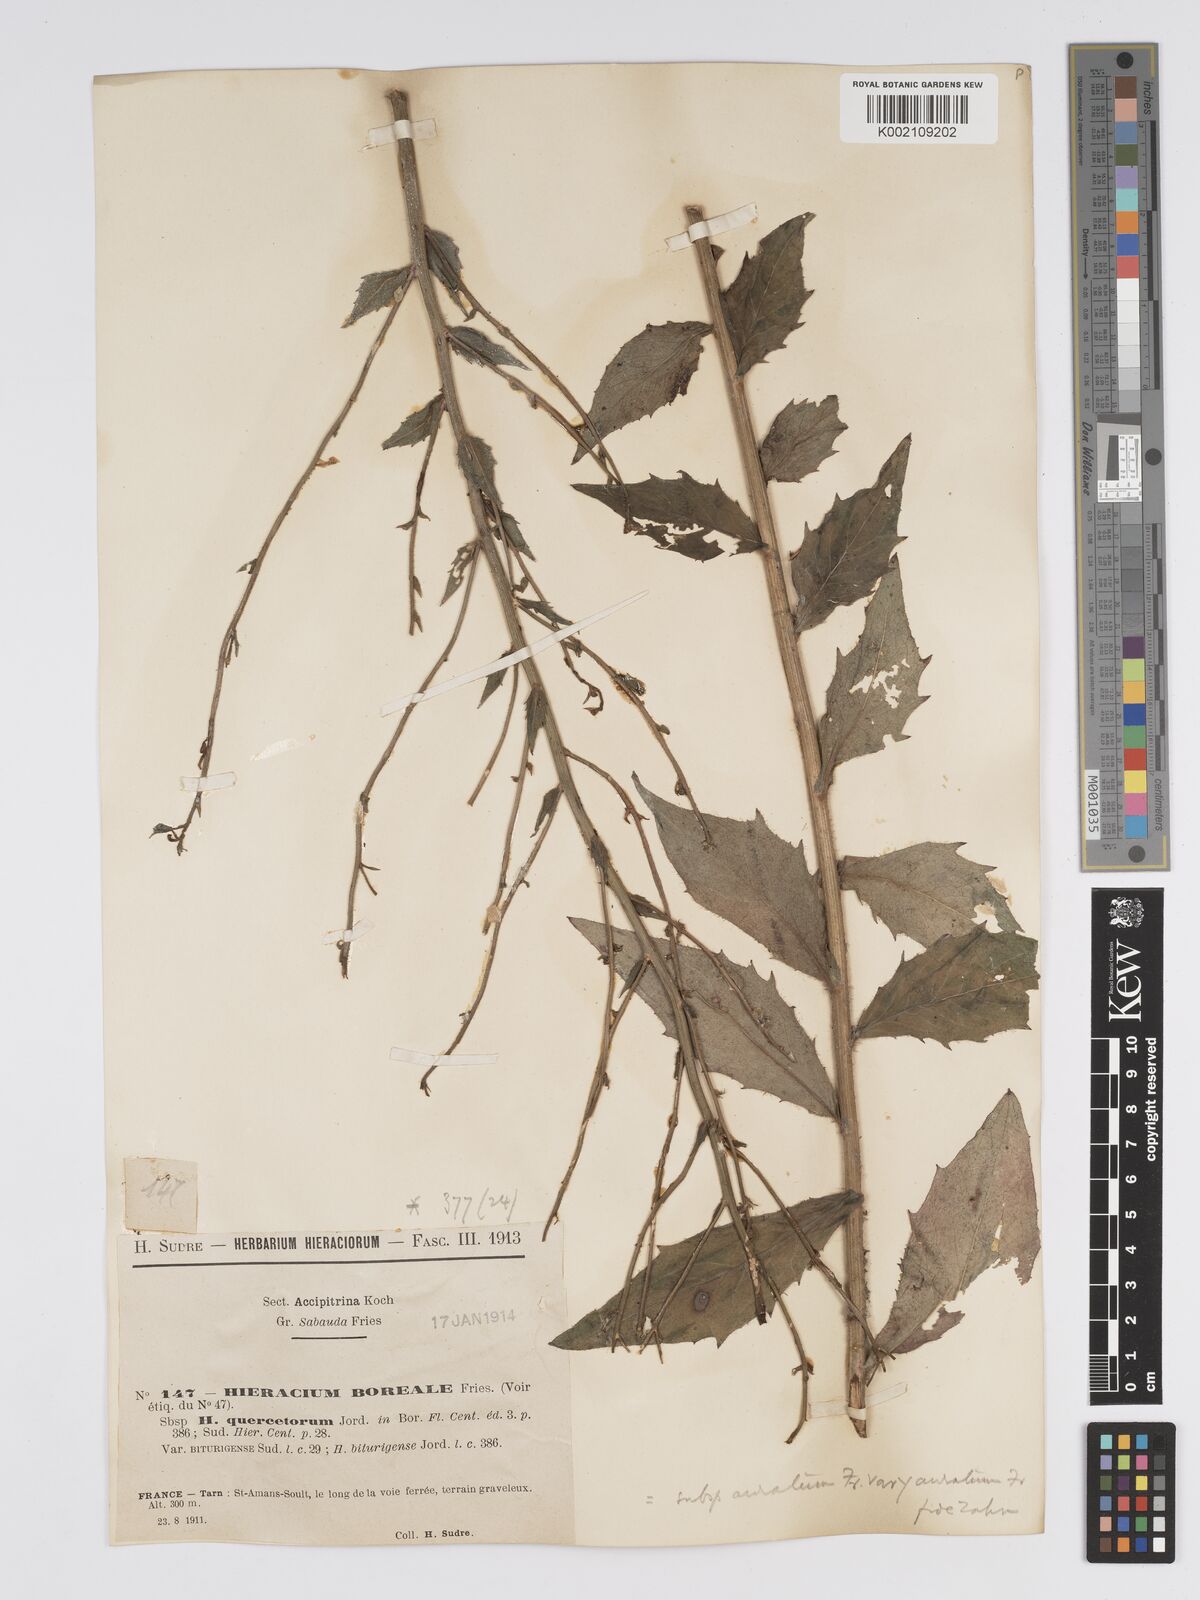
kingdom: Plantae
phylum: Tracheophyta
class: Magnoliopsida
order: Asterales
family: Asteraceae
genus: Hieracium
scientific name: Hieracium sabaudum
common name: New england hawkweed
